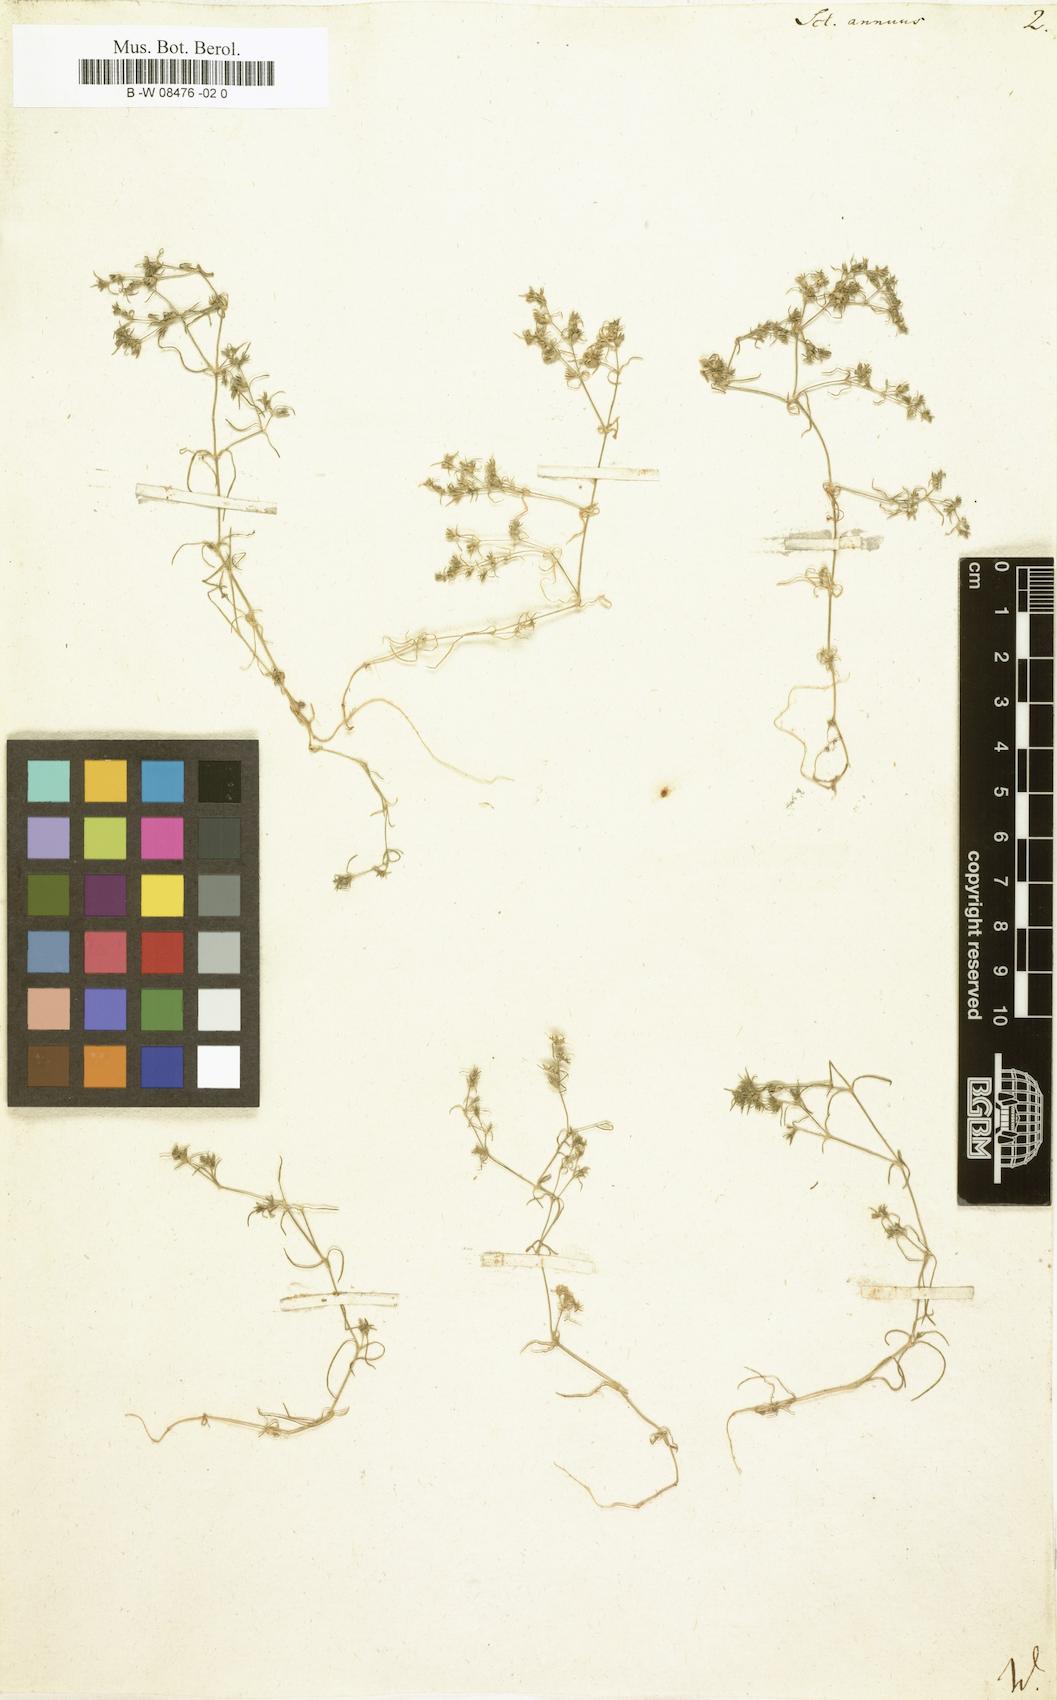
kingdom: Plantae
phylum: Tracheophyta
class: Magnoliopsida
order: Caryophyllales
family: Caryophyllaceae
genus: Scleranthus
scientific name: Scleranthus annuus
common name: Annual knawel
